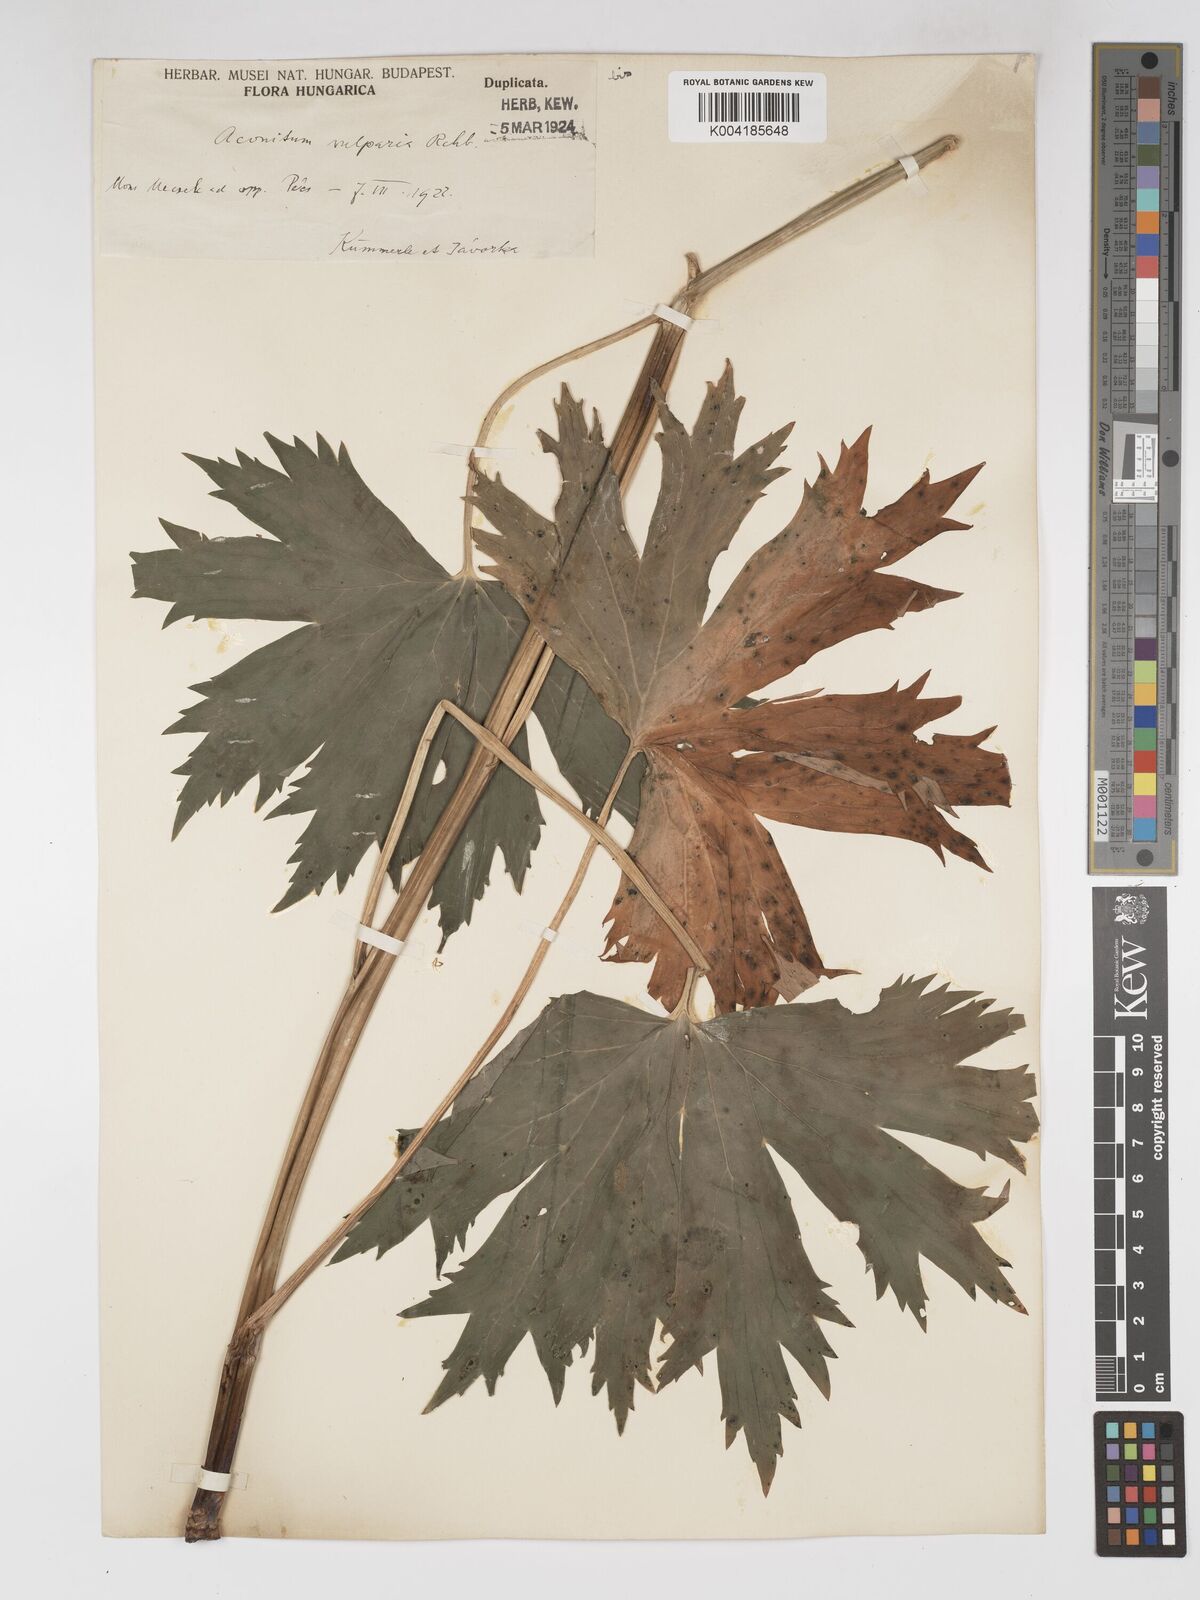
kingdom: Plantae
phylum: Tracheophyta
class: Magnoliopsida
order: Ranunculales
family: Ranunculaceae
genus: Aconitum
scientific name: Aconitum lycoctonum
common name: Wolf's-bane
